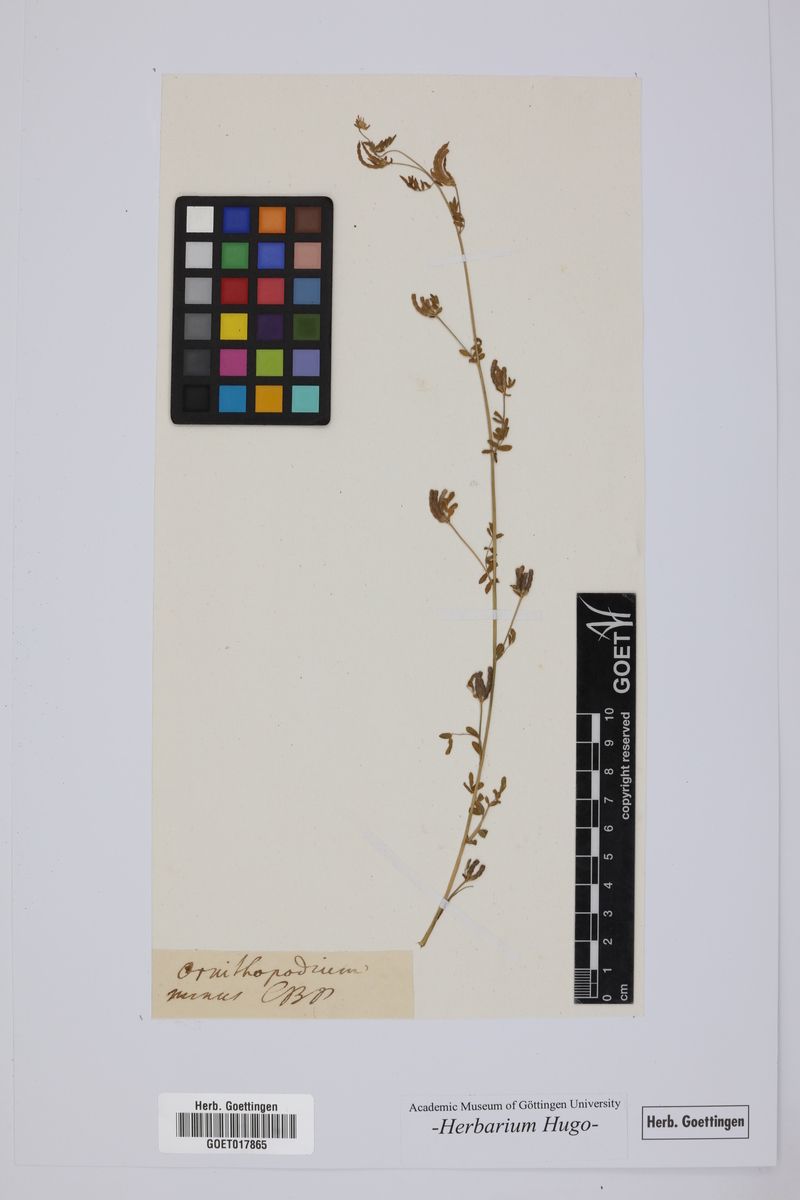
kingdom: Plantae
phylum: Tracheophyta
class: Magnoliopsida
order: Fabales
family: Fabaceae
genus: Ornithopus
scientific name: Ornithopus perpusillus
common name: Bird's-foot
